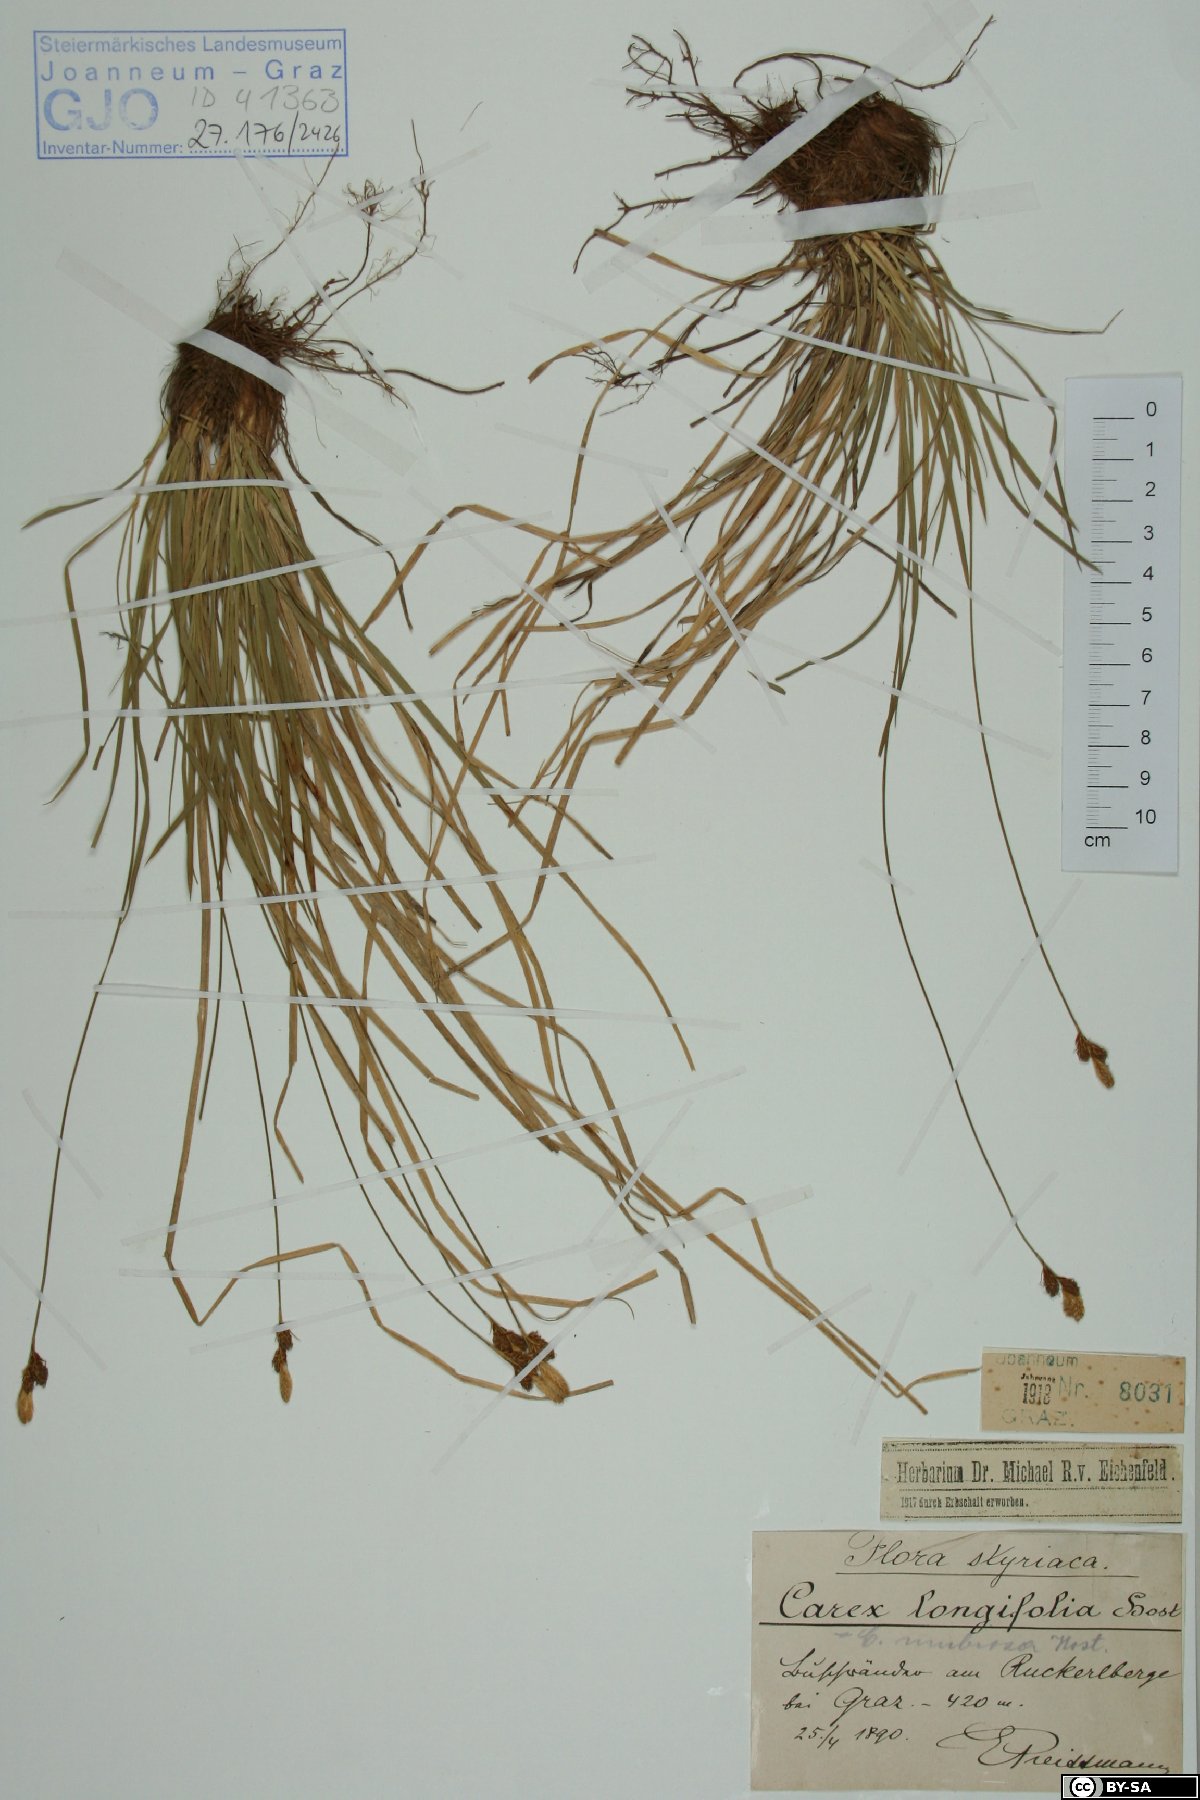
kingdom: Plantae
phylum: Tracheophyta
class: Liliopsida
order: Poales
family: Cyperaceae
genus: Carex
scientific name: Carex umbrosa
